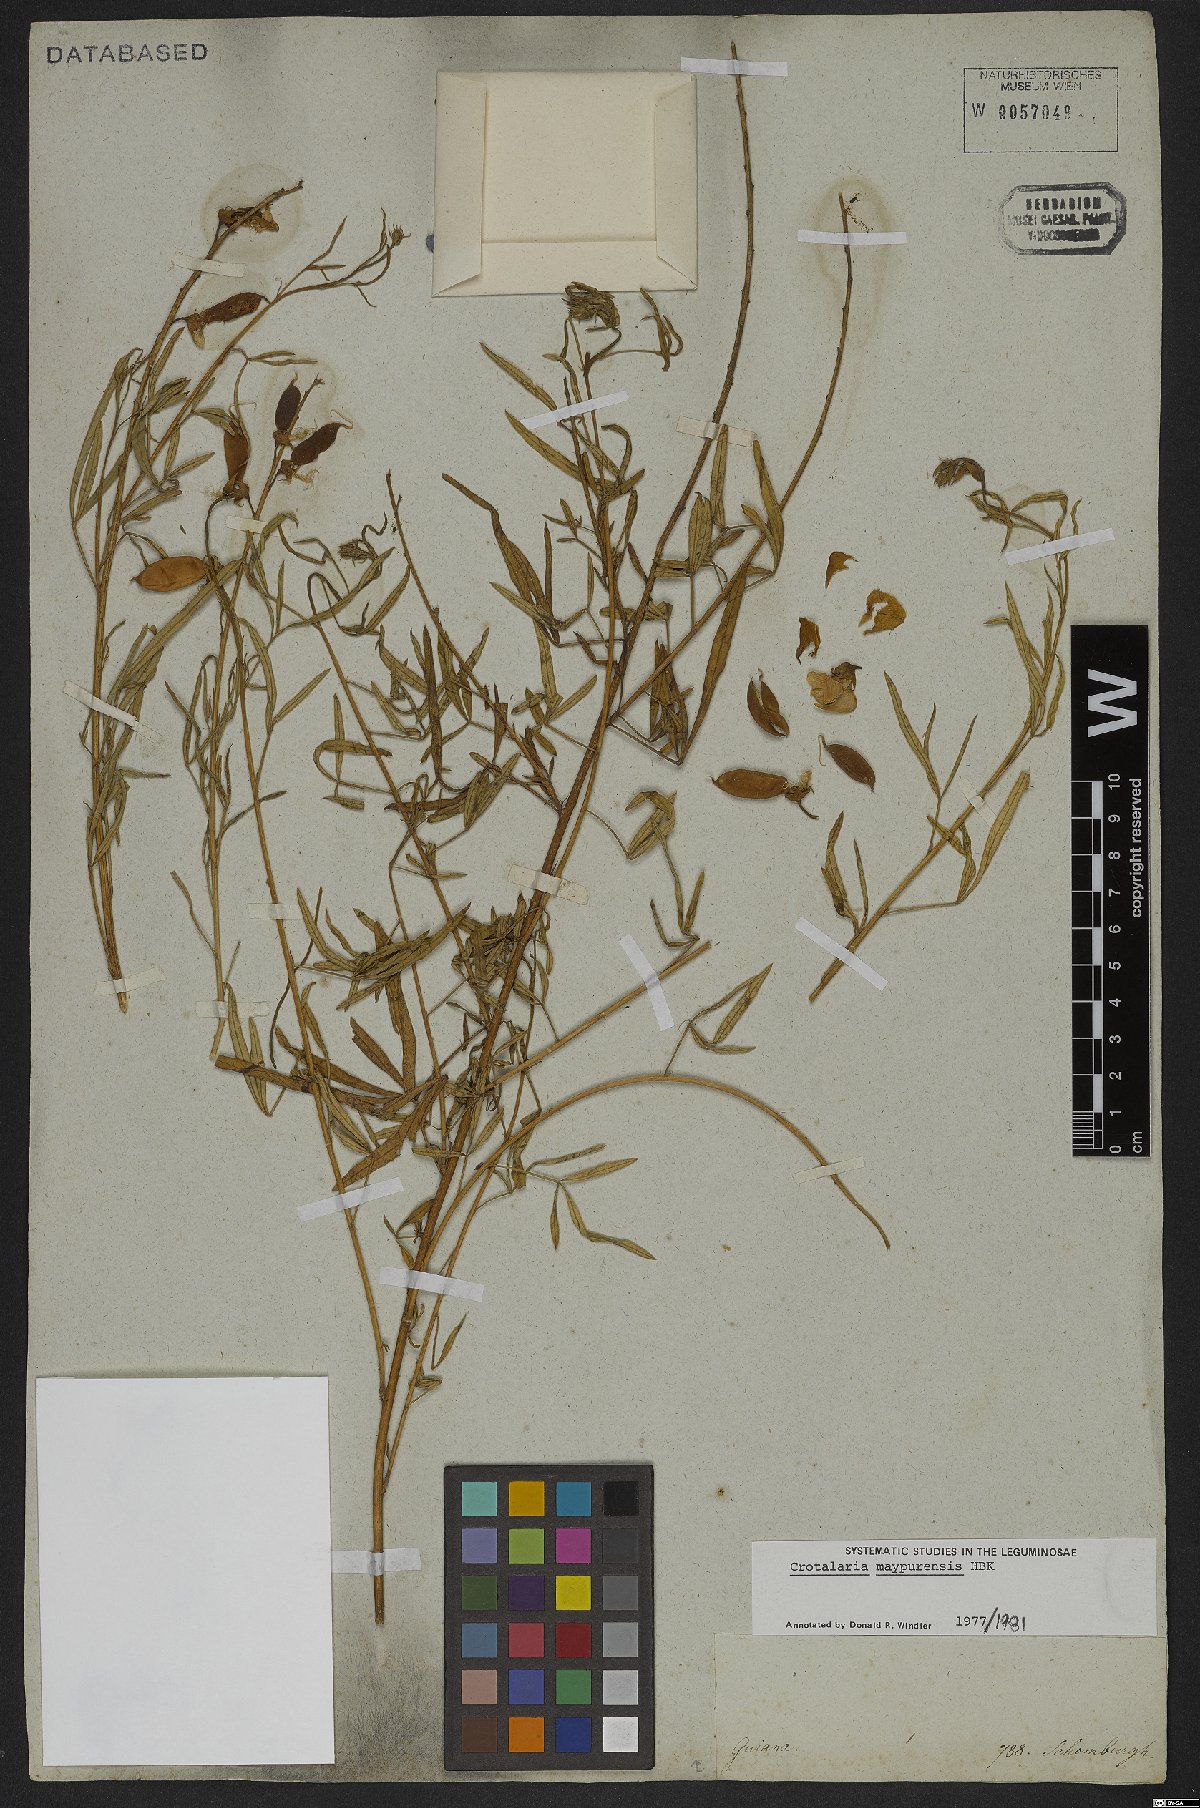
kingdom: Plantae
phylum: Tracheophyta
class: Magnoliopsida
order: Fabales
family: Fabaceae
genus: Crotalaria
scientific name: Crotalaria maypurensis
